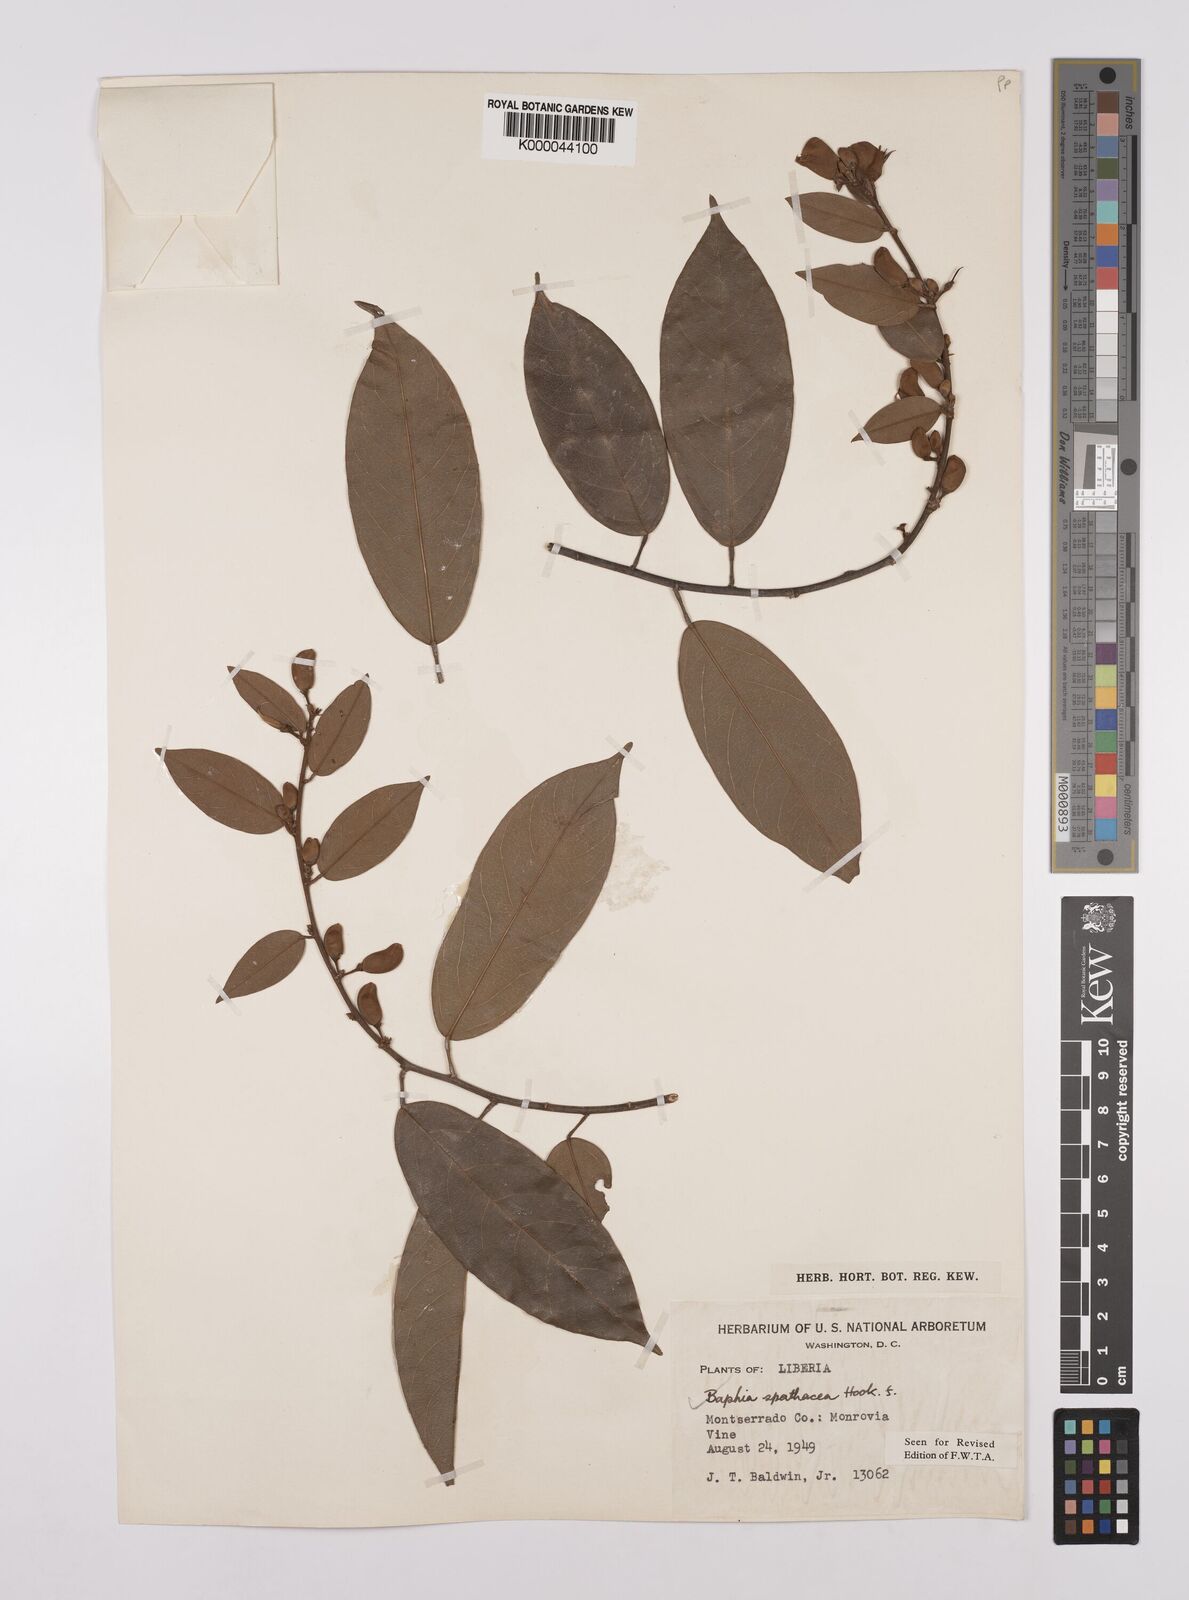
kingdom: Plantae
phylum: Tracheophyta
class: Magnoliopsida
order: Fabales
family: Fabaceae
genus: Baphia
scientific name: Baphia spathacea
